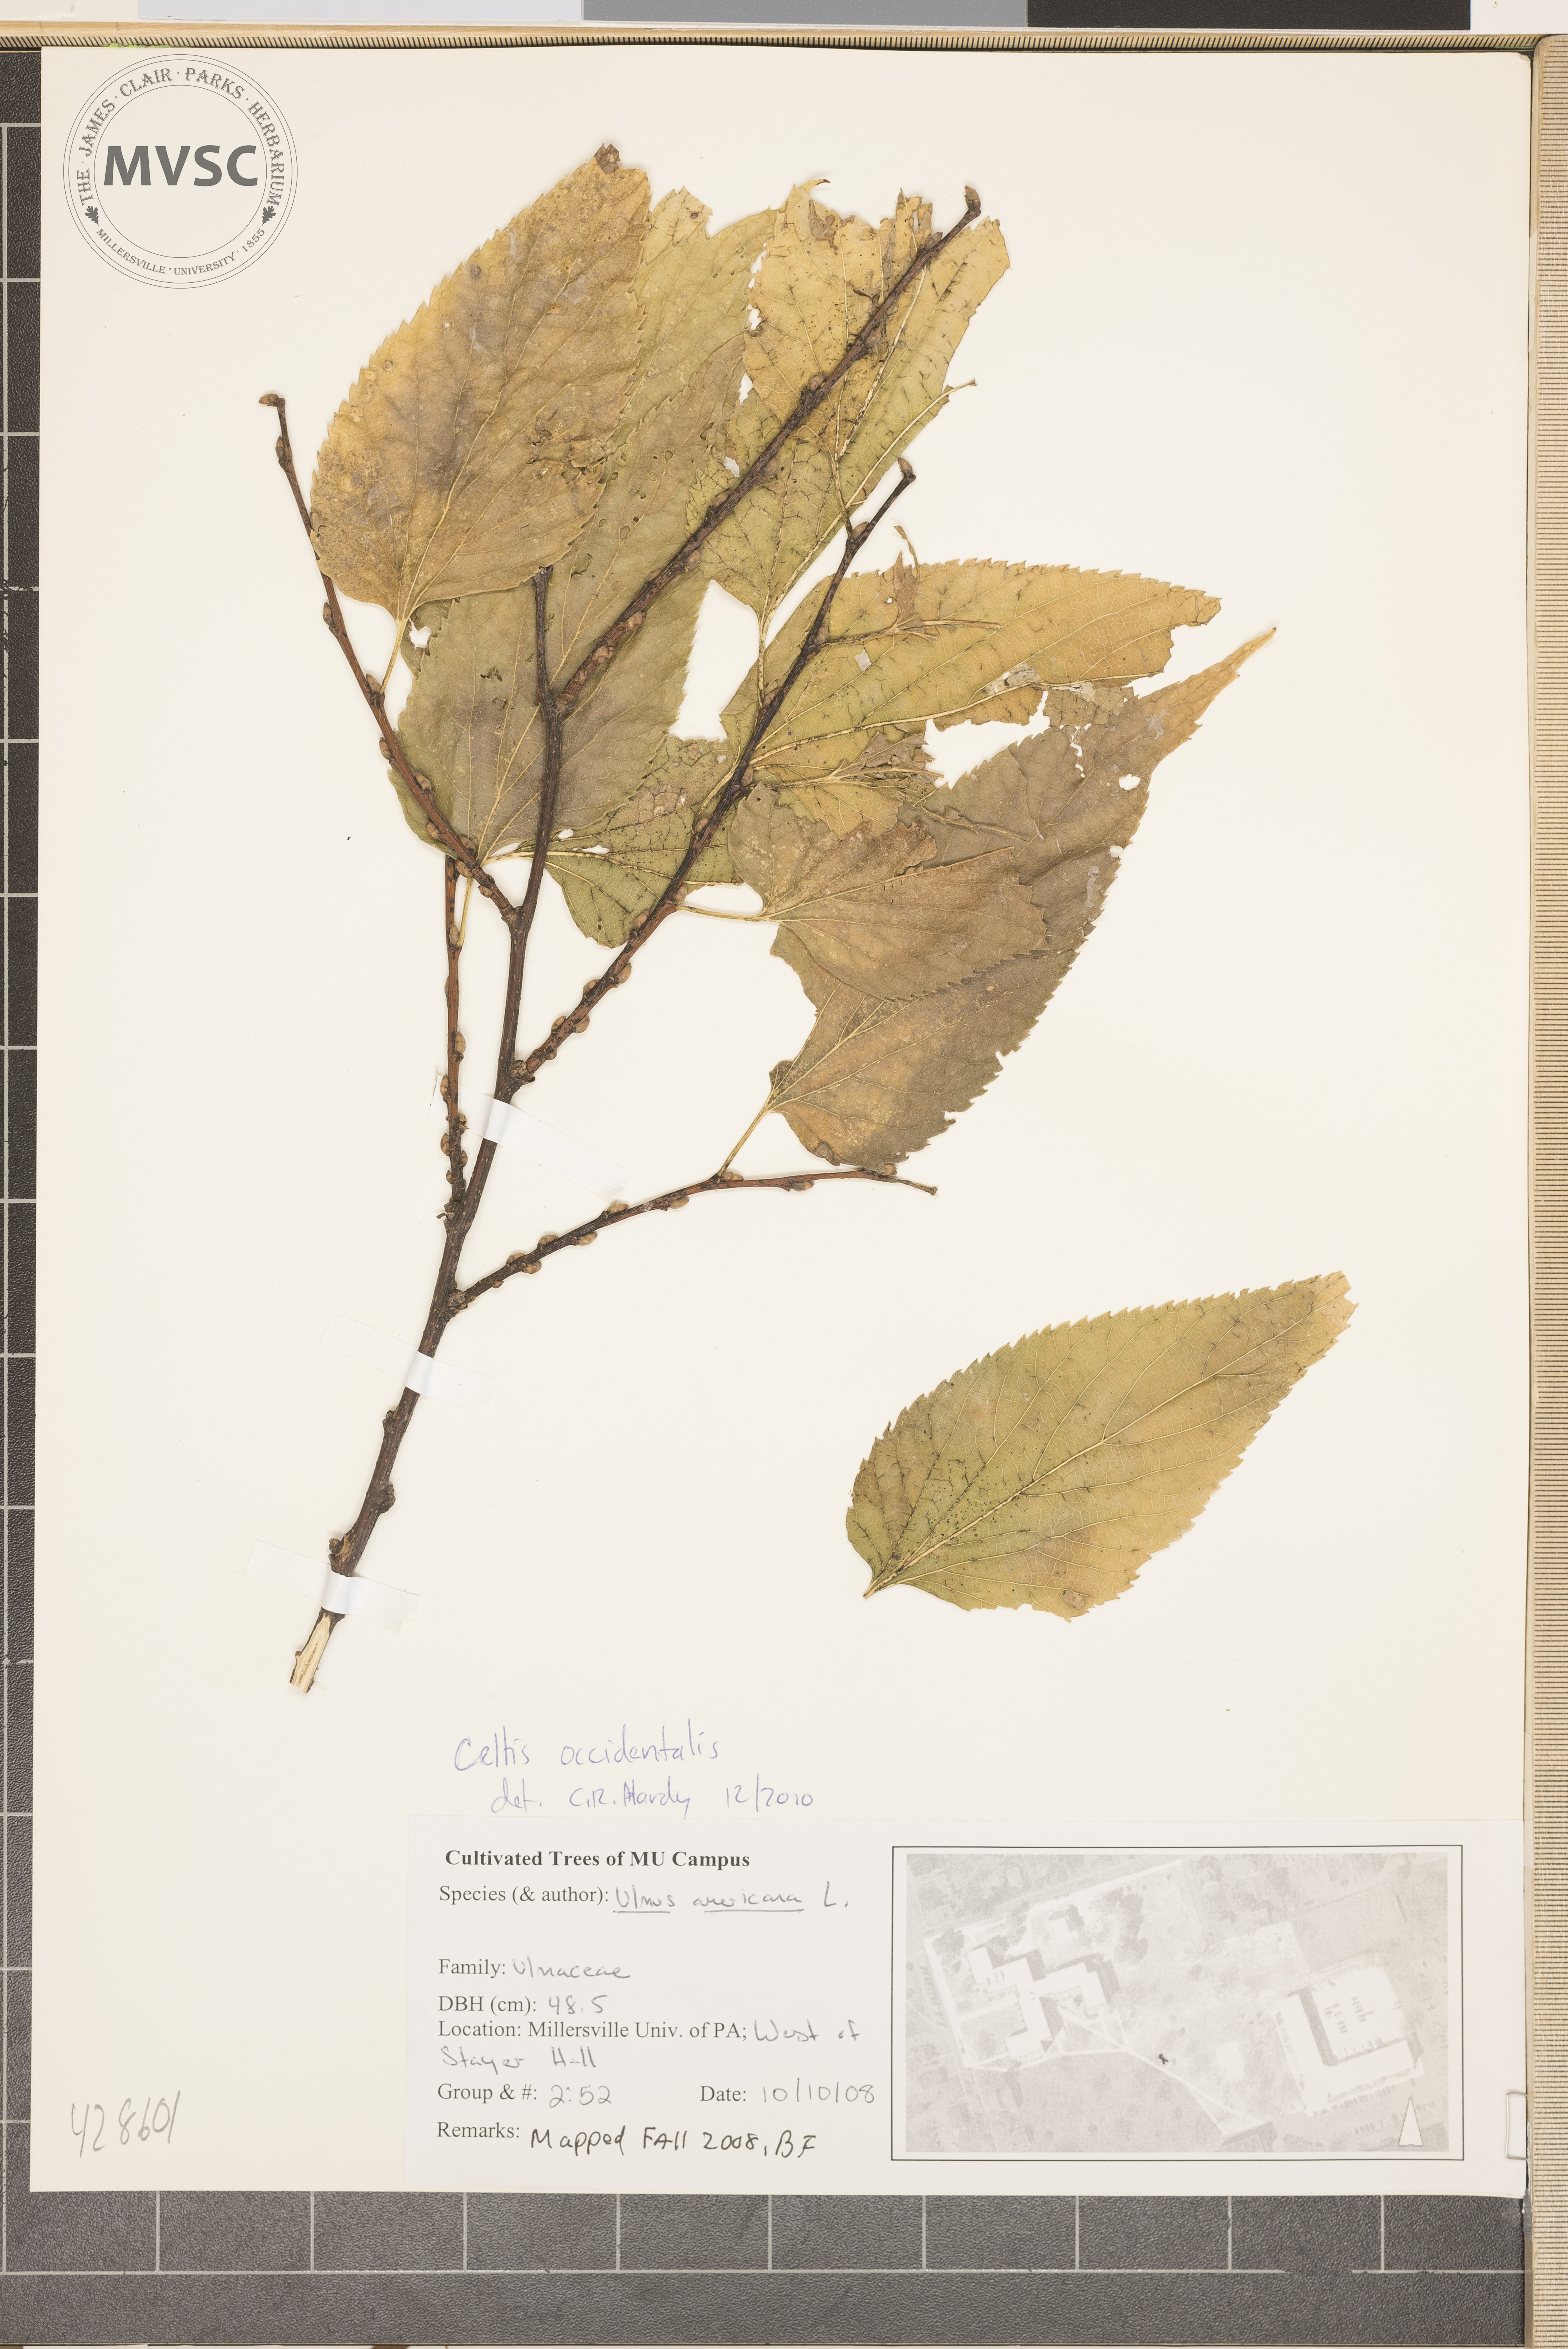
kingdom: Plantae
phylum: Tracheophyta
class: Magnoliopsida
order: Rosales
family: Ulmaceae
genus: Ulmus
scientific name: Ulmus americana
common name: American Elm
